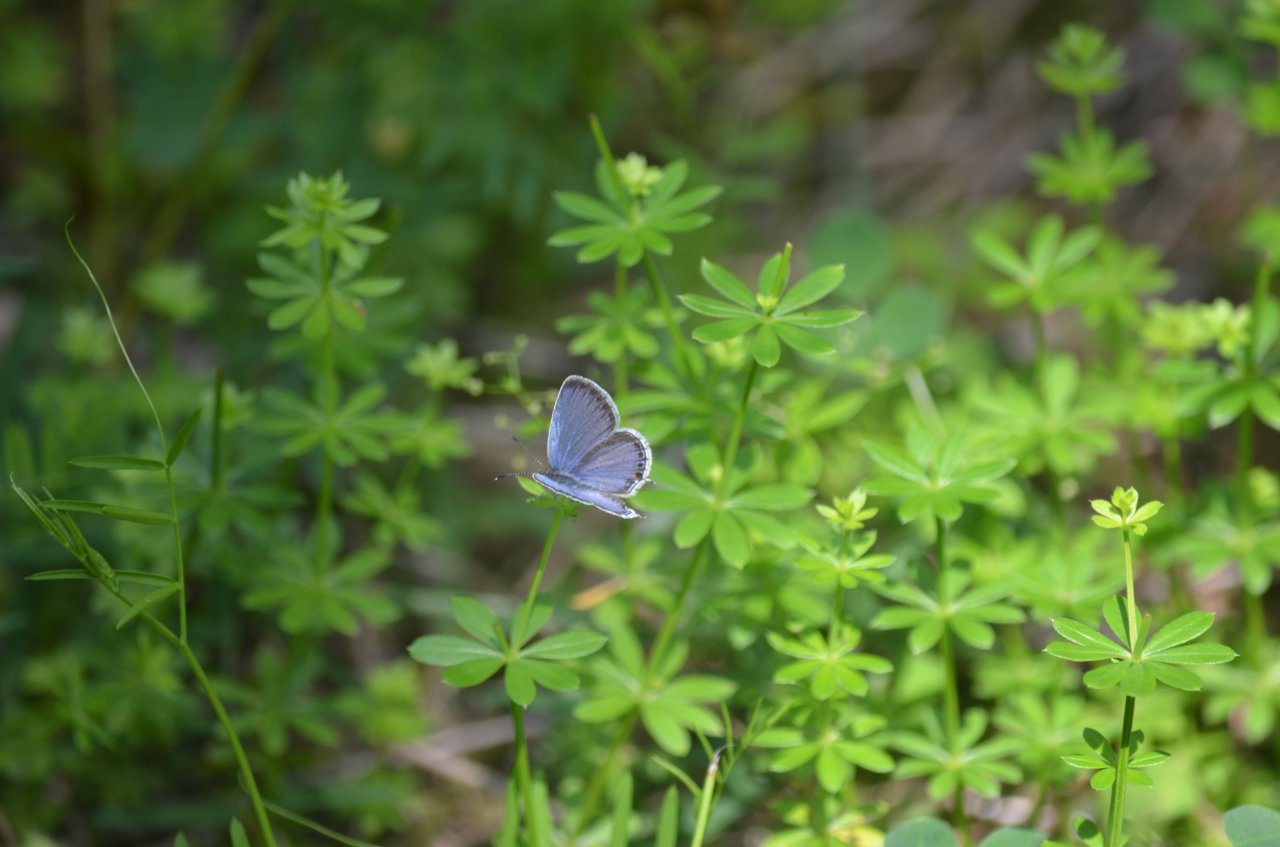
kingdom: Animalia
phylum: Arthropoda
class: Insecta
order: Lepidoptera
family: Lycaenidae
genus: Elkalyce
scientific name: Elkalyce comyntas
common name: Eastern Tailed-Blue
